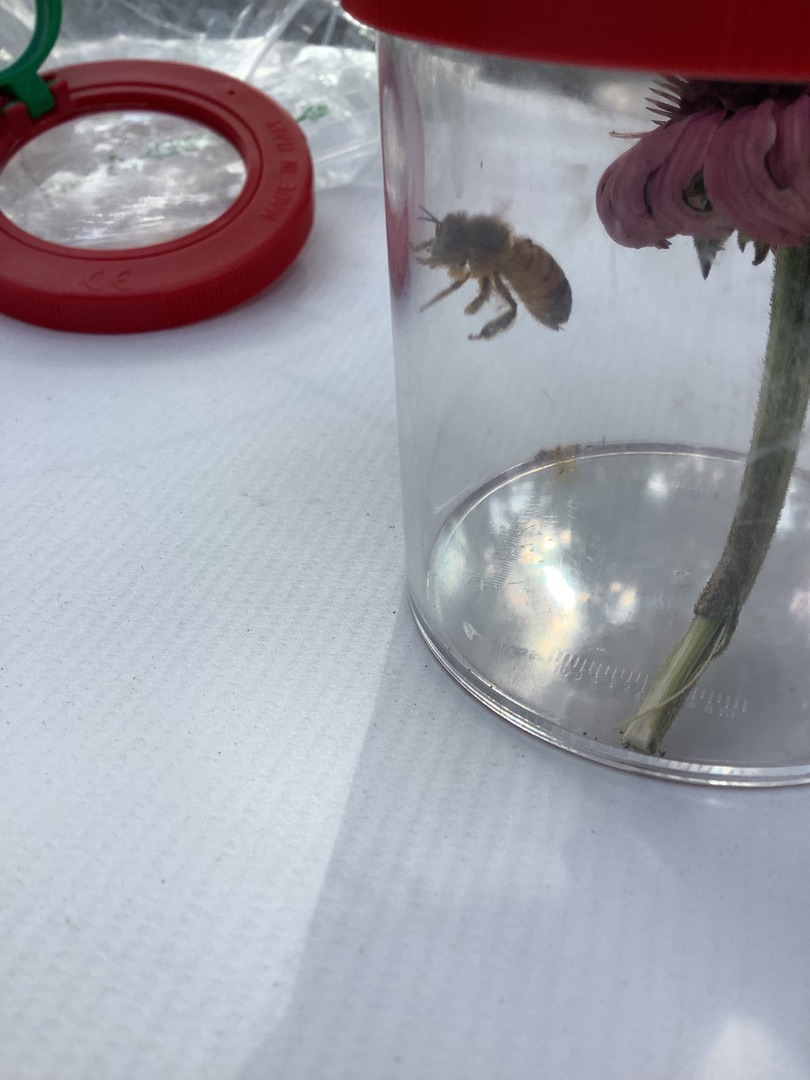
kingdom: Animalia
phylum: Arthropoda
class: Insecta
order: Hymenoptera
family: Apidae
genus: Apis
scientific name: Apis mellifera
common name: Honningbi
